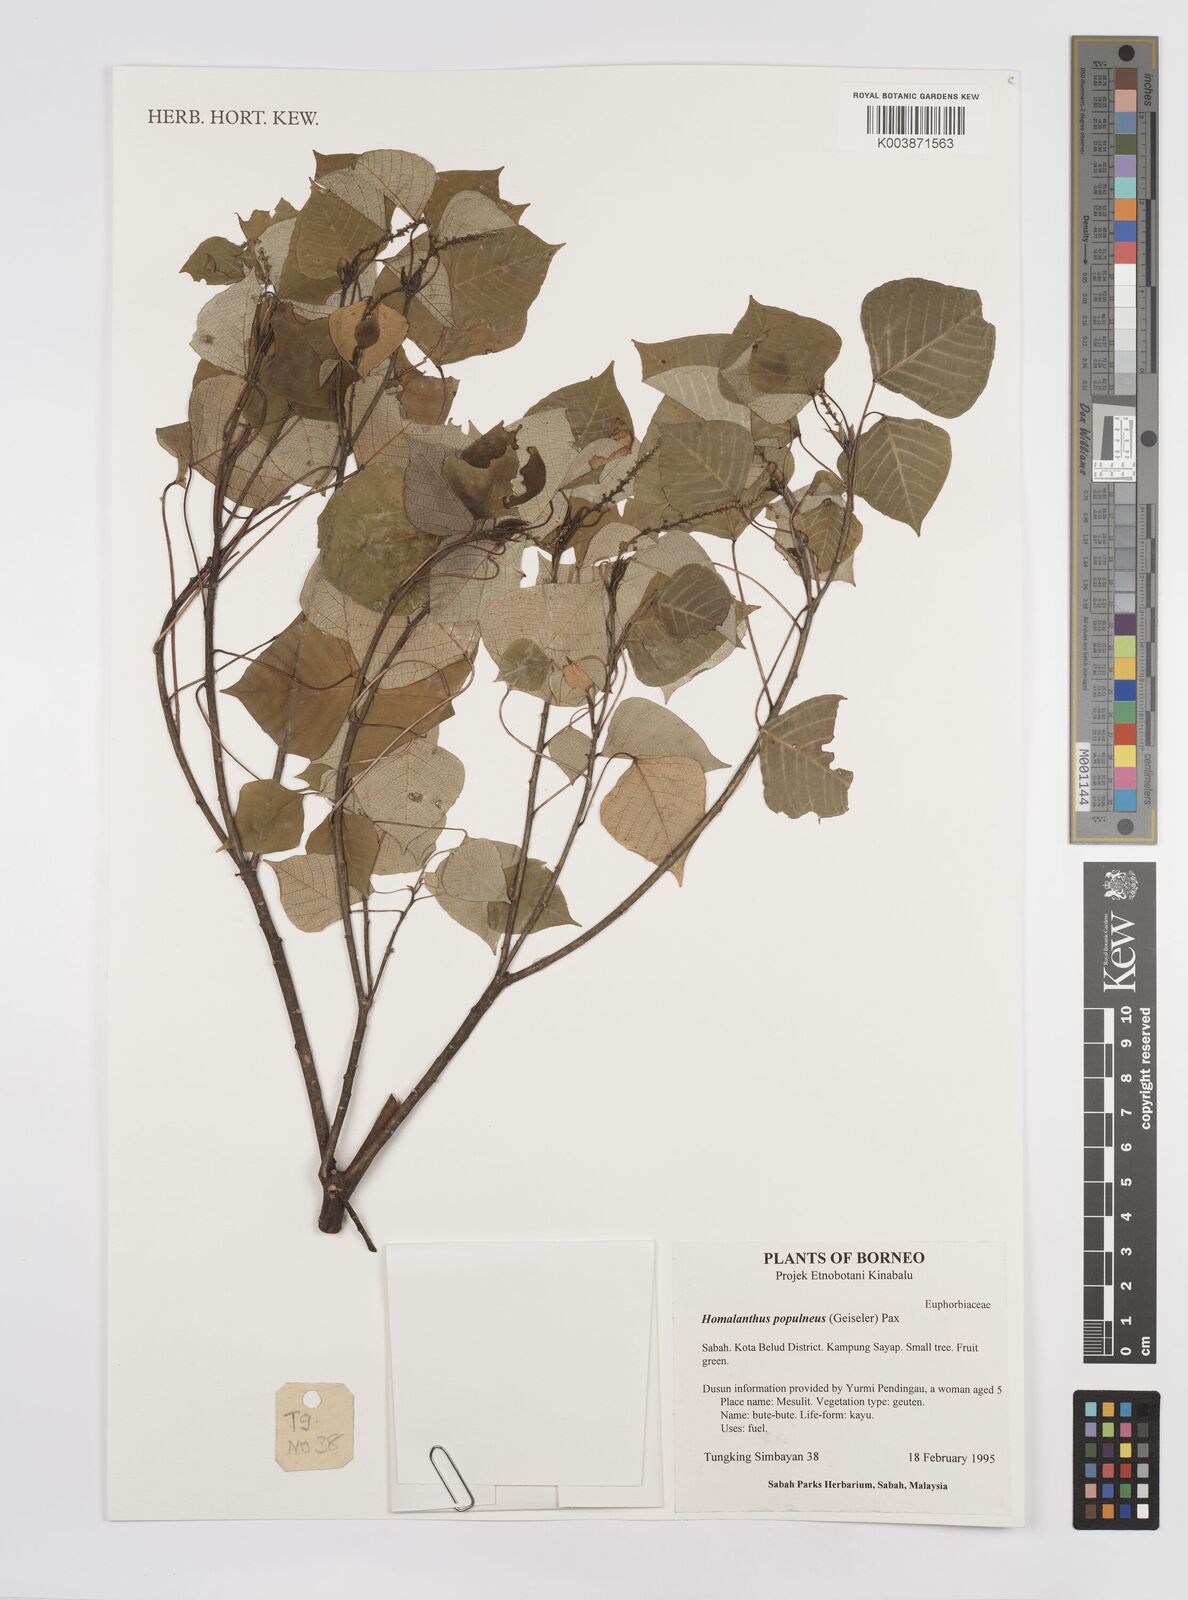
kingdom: Plantae
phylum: Tracheophyta
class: Magnoliopsida
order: Malpighiales
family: Euphorbiaceae
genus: Homalanthus
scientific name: Homalanthus populneus
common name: Spurge
